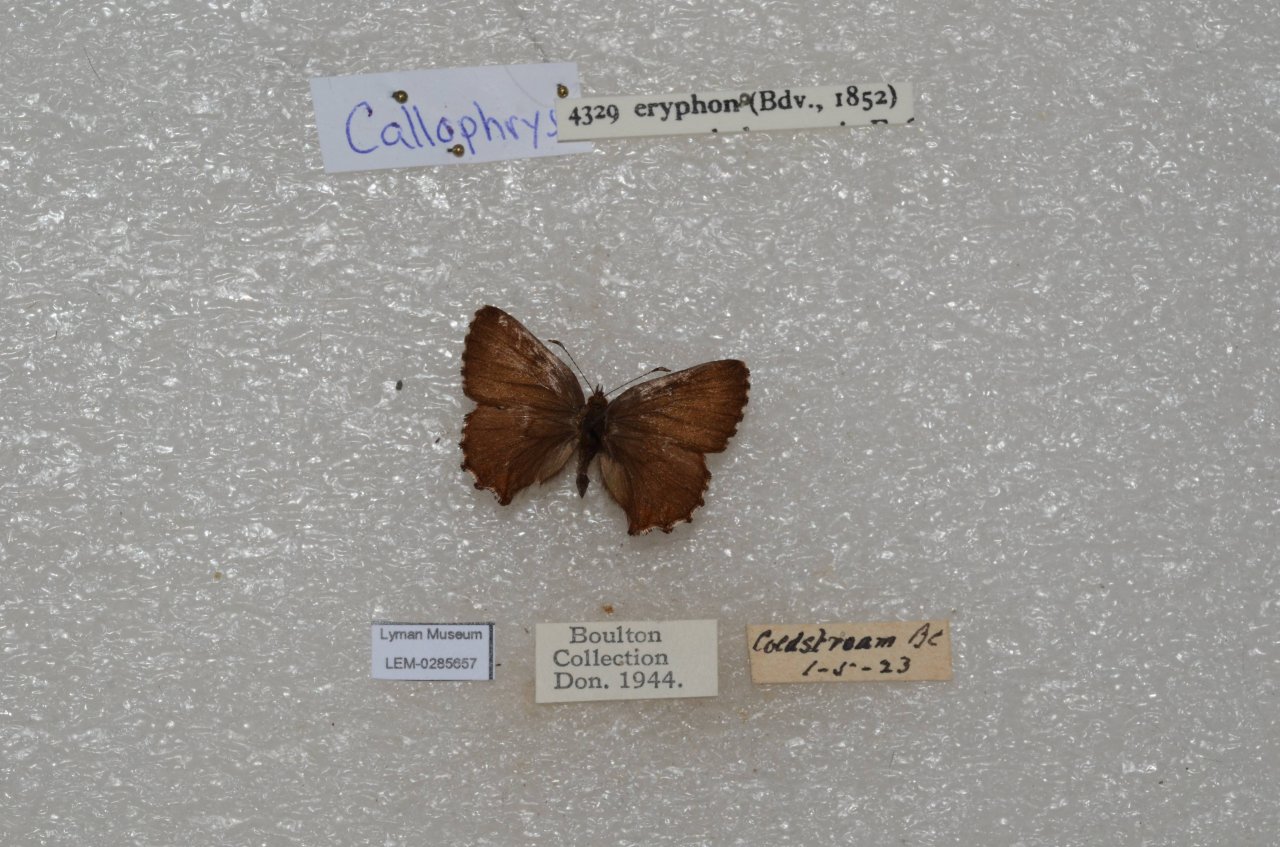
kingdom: Animalia
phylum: Arthropoda
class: Insecta
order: Lepidoptera
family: Lycaenidae
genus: Incisalia
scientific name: Incisalia eryphon
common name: Western Pine Elfin
